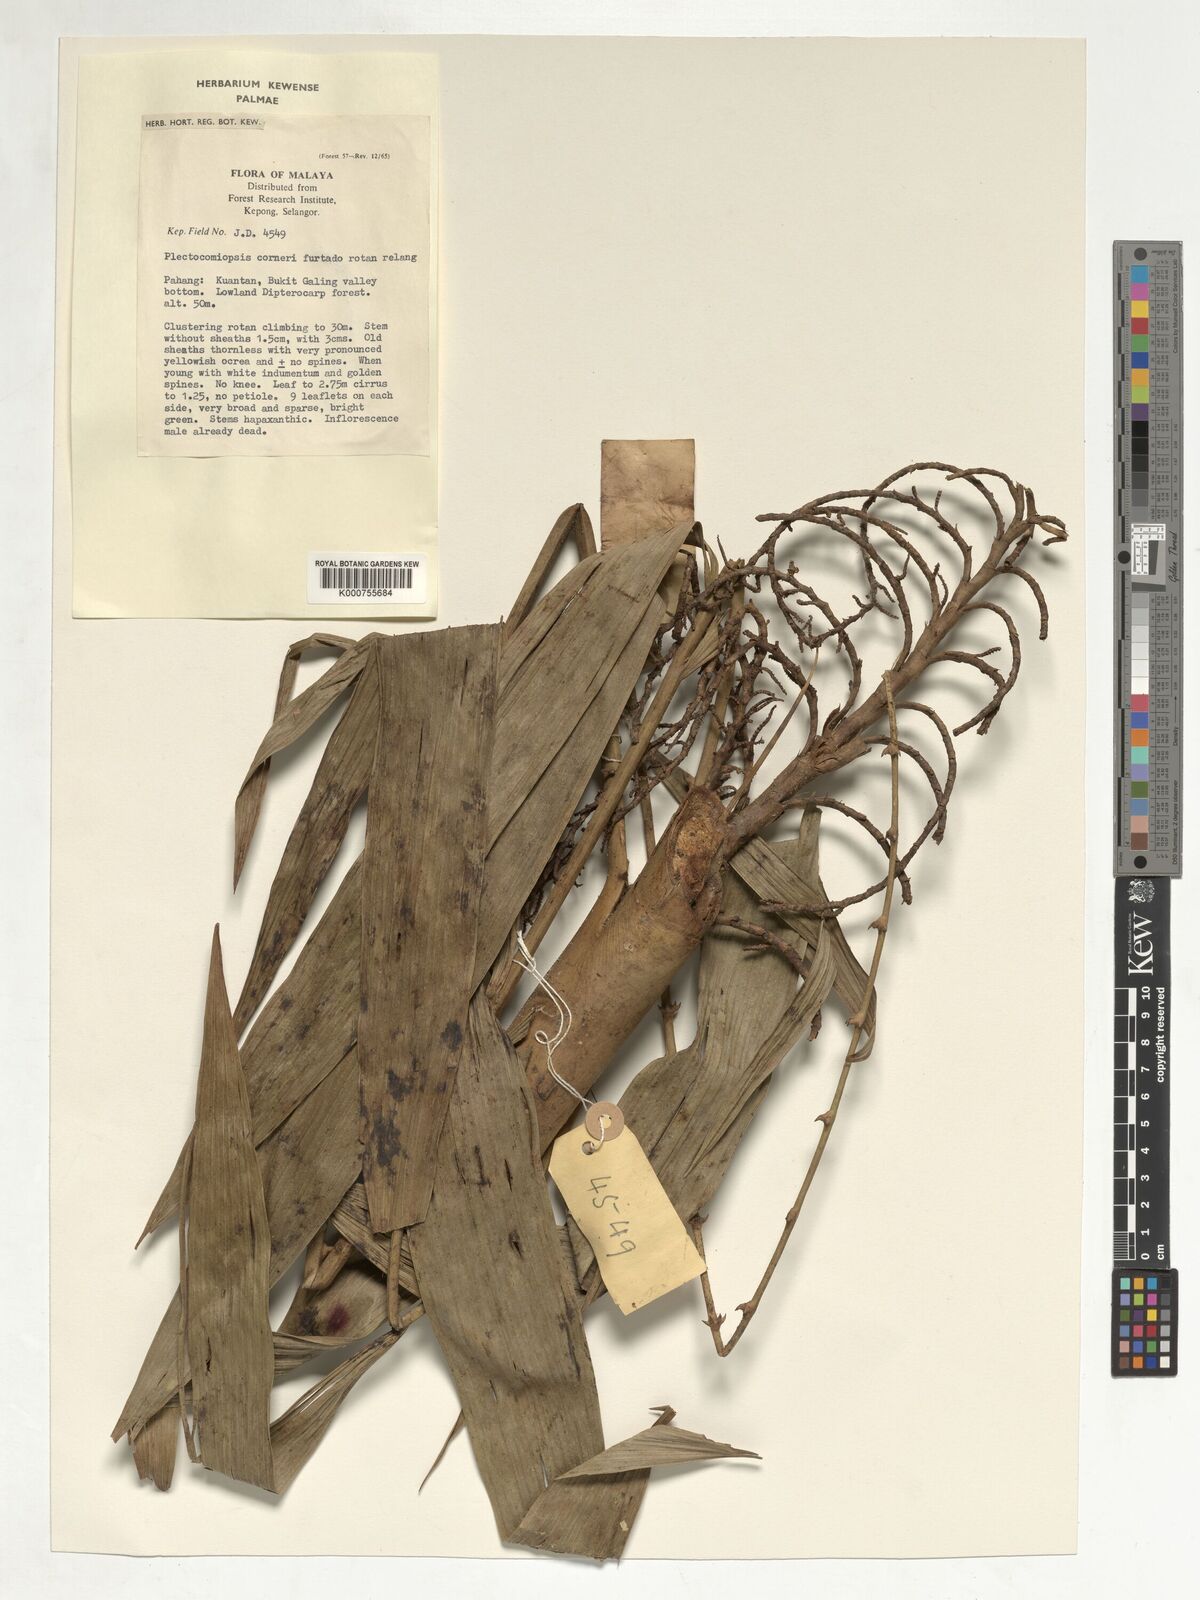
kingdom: Plantae
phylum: Tracheophyta
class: Liliopsida
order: Arecales
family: Arecaceae
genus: Plectocomiopsis
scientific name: Plectocomiopsis corneri
